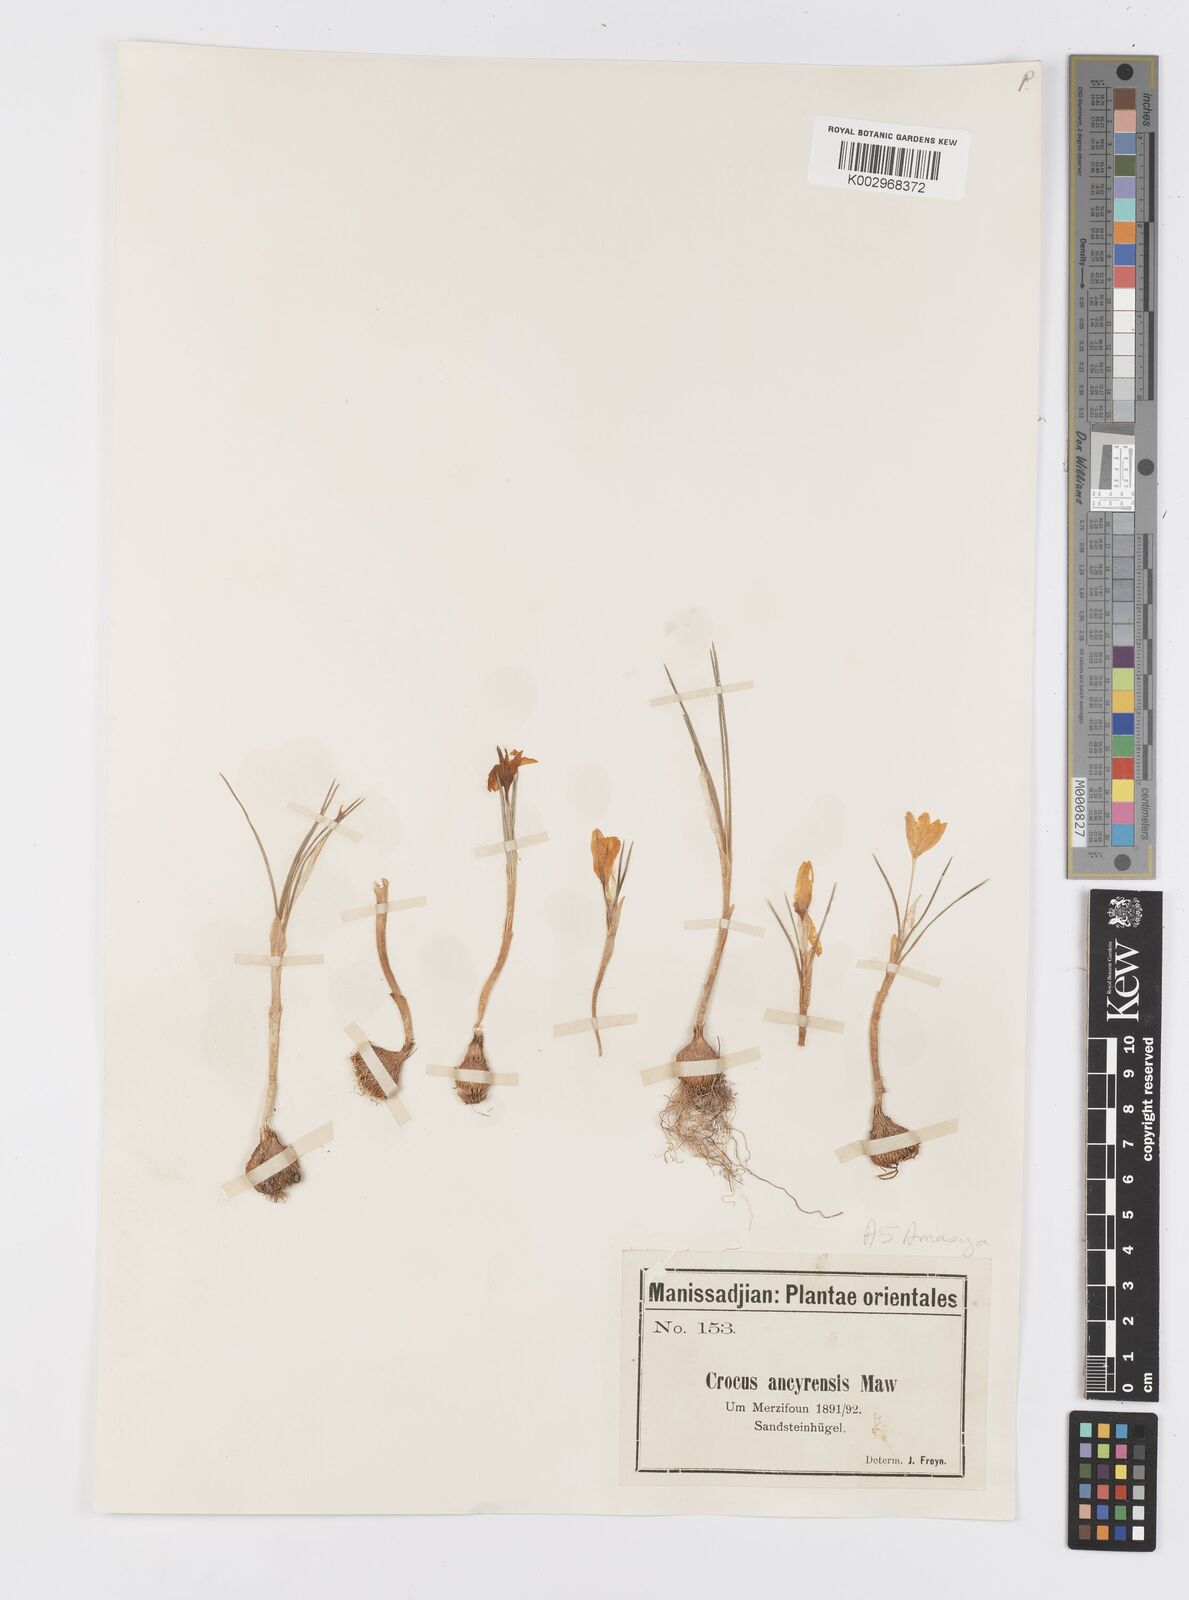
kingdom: Plantae
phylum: Tracheophyta
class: Liliopsida
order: Asparagales
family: Iridaceae
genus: Crocus
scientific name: Crocus ancyrensis
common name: Ankara crocus
